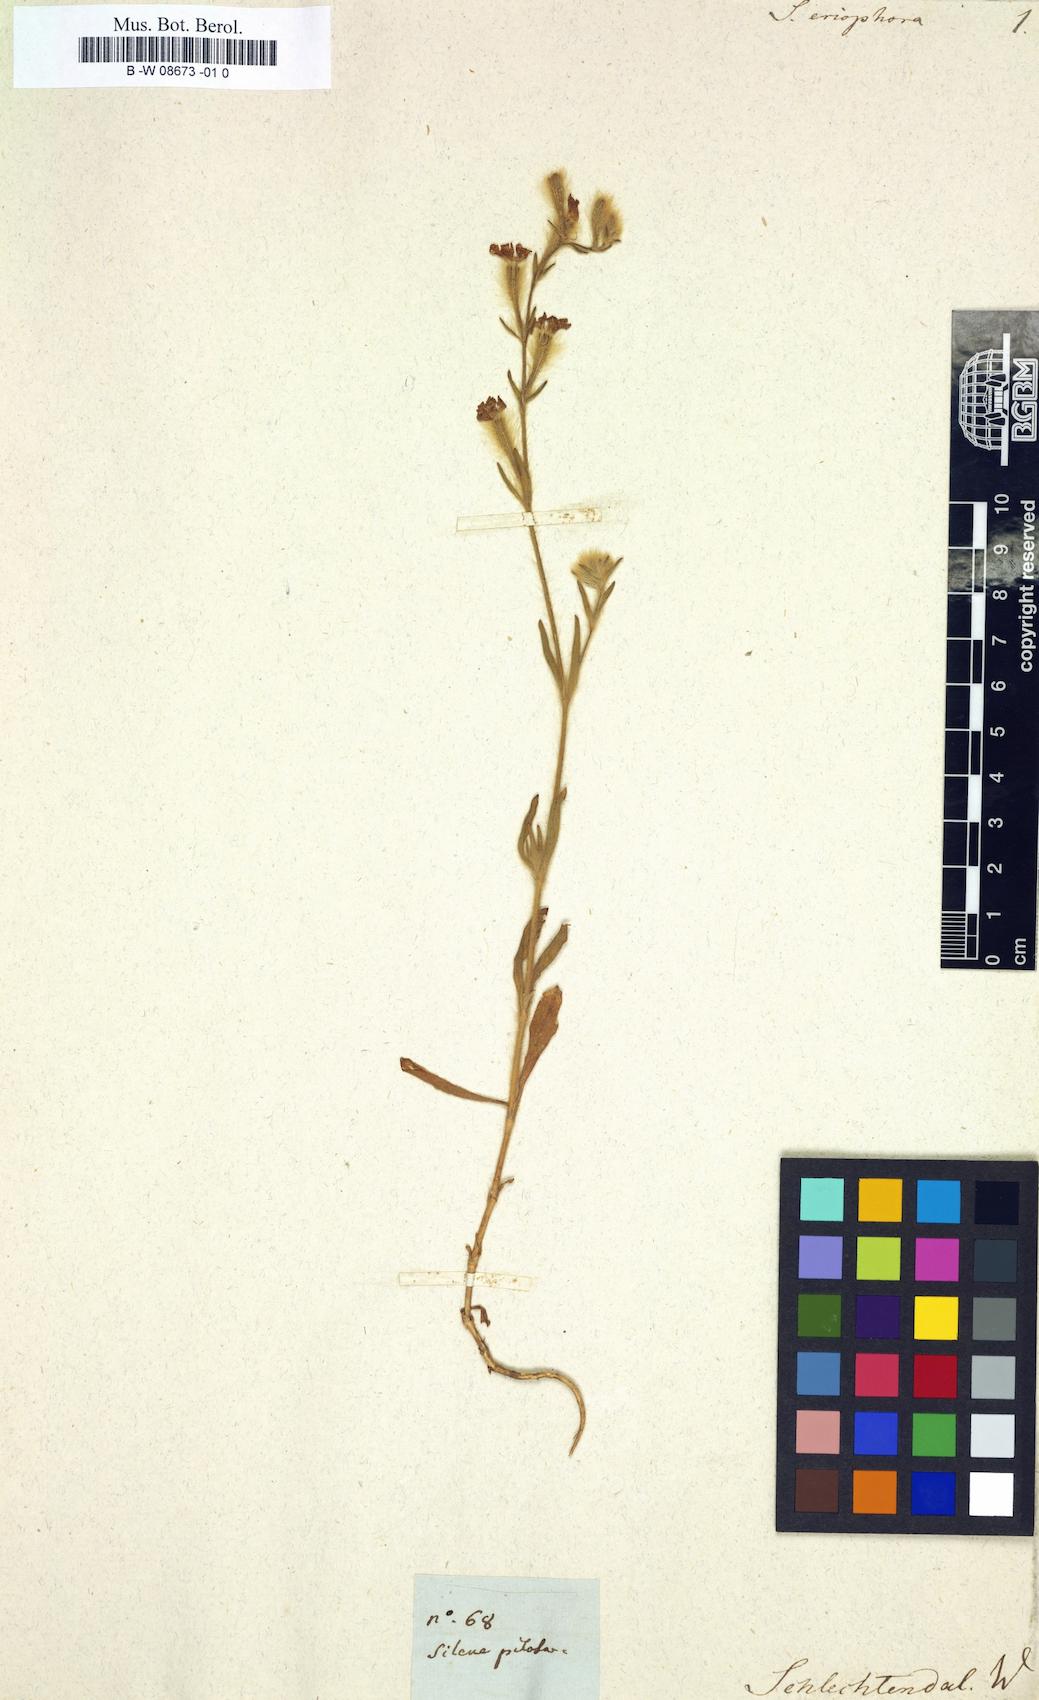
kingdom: Plantae
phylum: Tracheophyta
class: Magnoliopsida
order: Caryophyllales
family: Caryophyllaceae
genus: Silene
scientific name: Silene colorata
